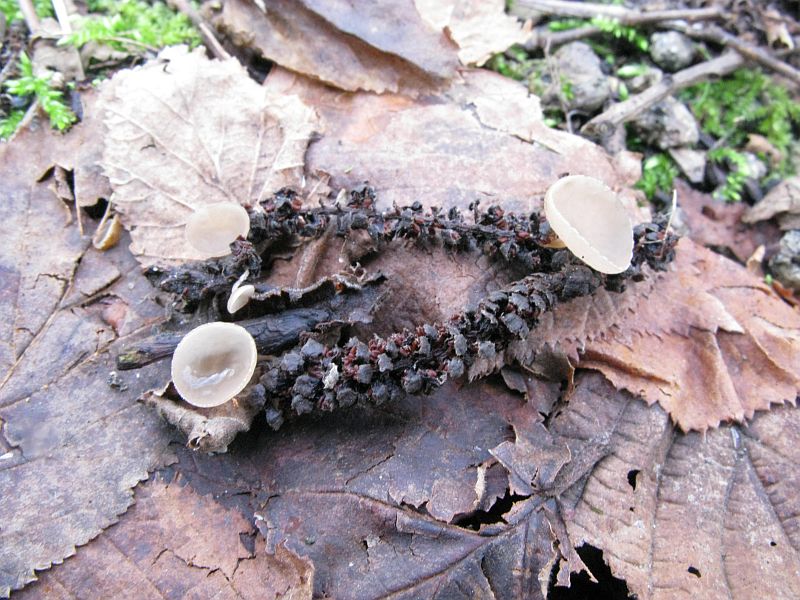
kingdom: Fungi
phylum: Ascomycota
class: Leotiomycetes
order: Helotiales
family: Sclerotiniaceae
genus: Ciboria
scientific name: Ciboria caucus
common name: rakle-knoldskive
